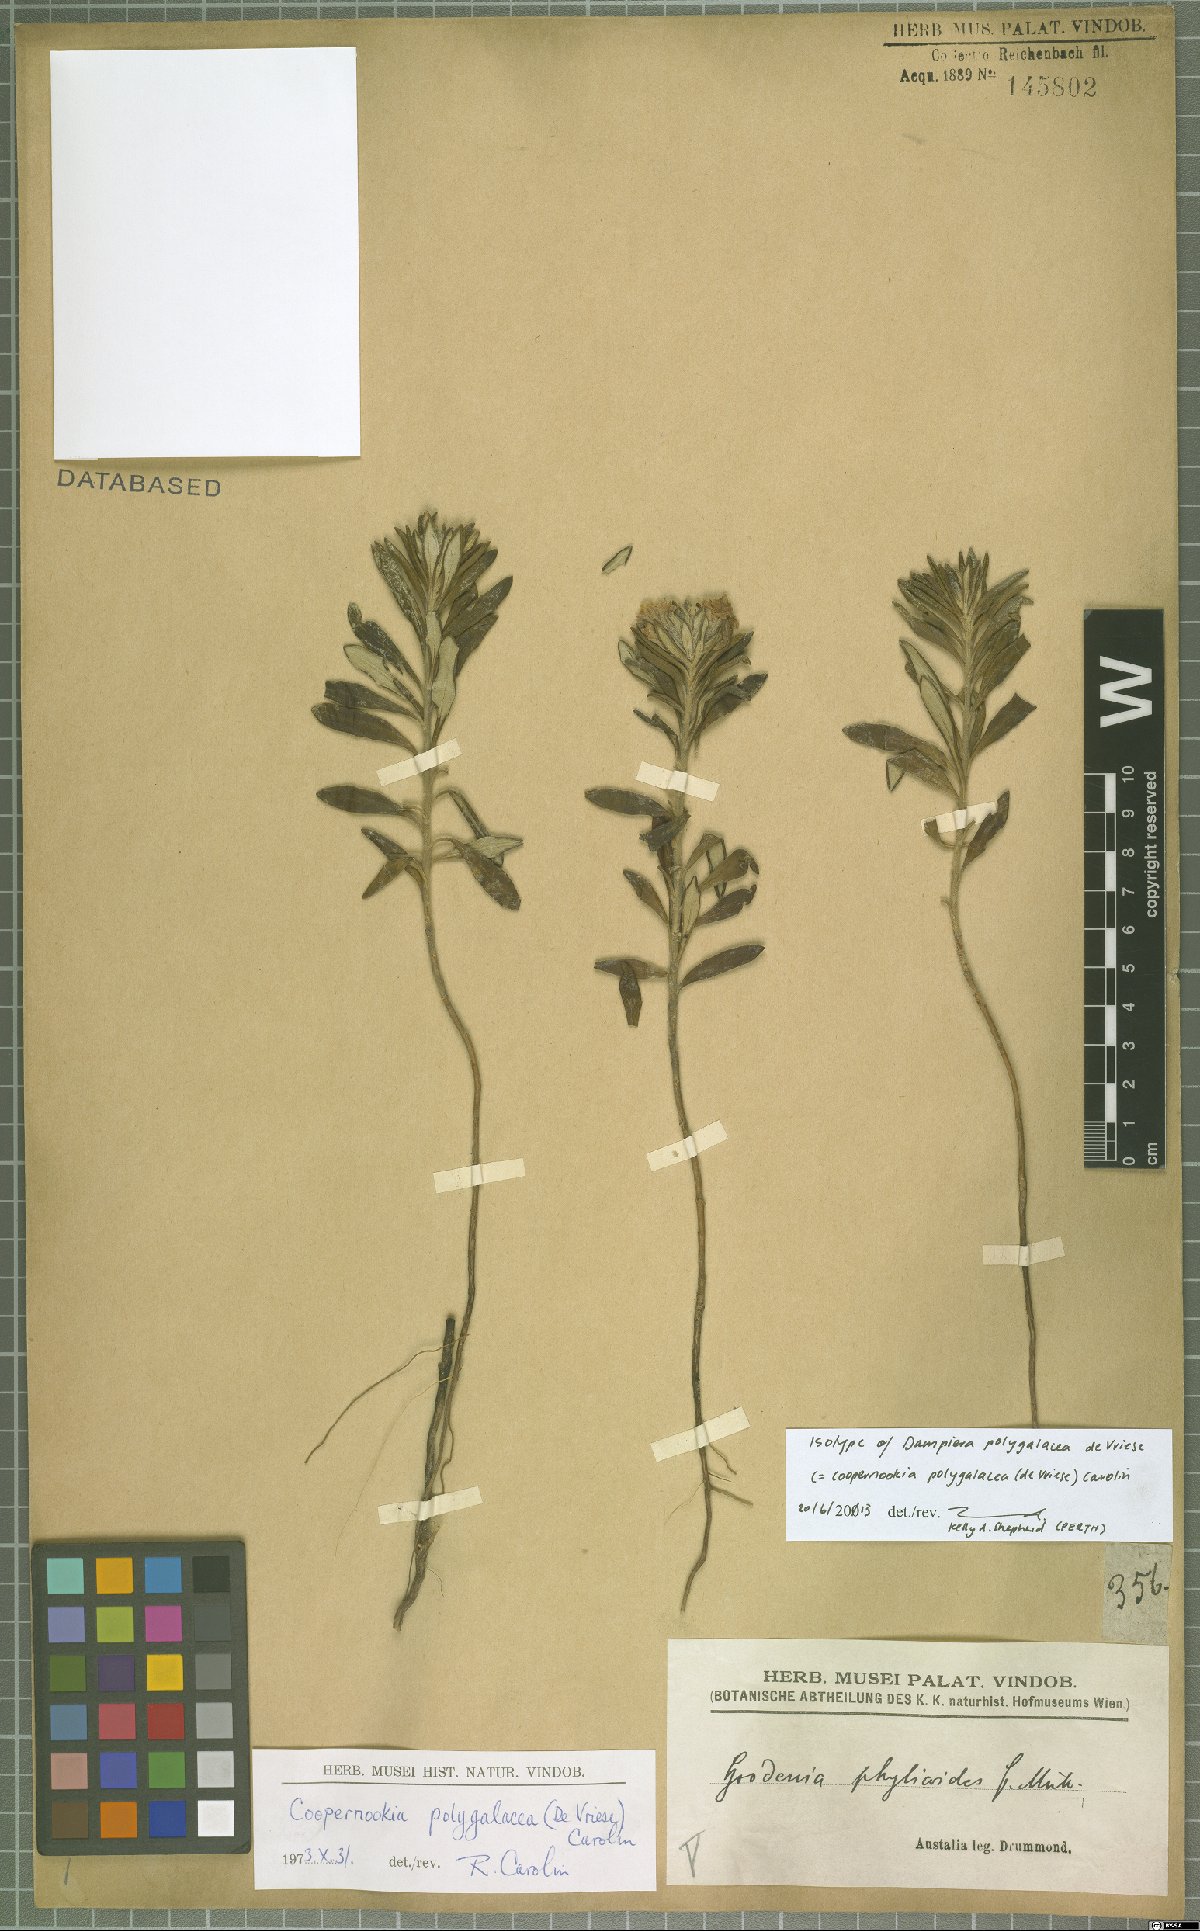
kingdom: Plantae
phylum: Tracheophyta
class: Magnoliopsida
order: Asterales
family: Goodeniaceae
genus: Goodenia
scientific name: Goodenia phylicoides
